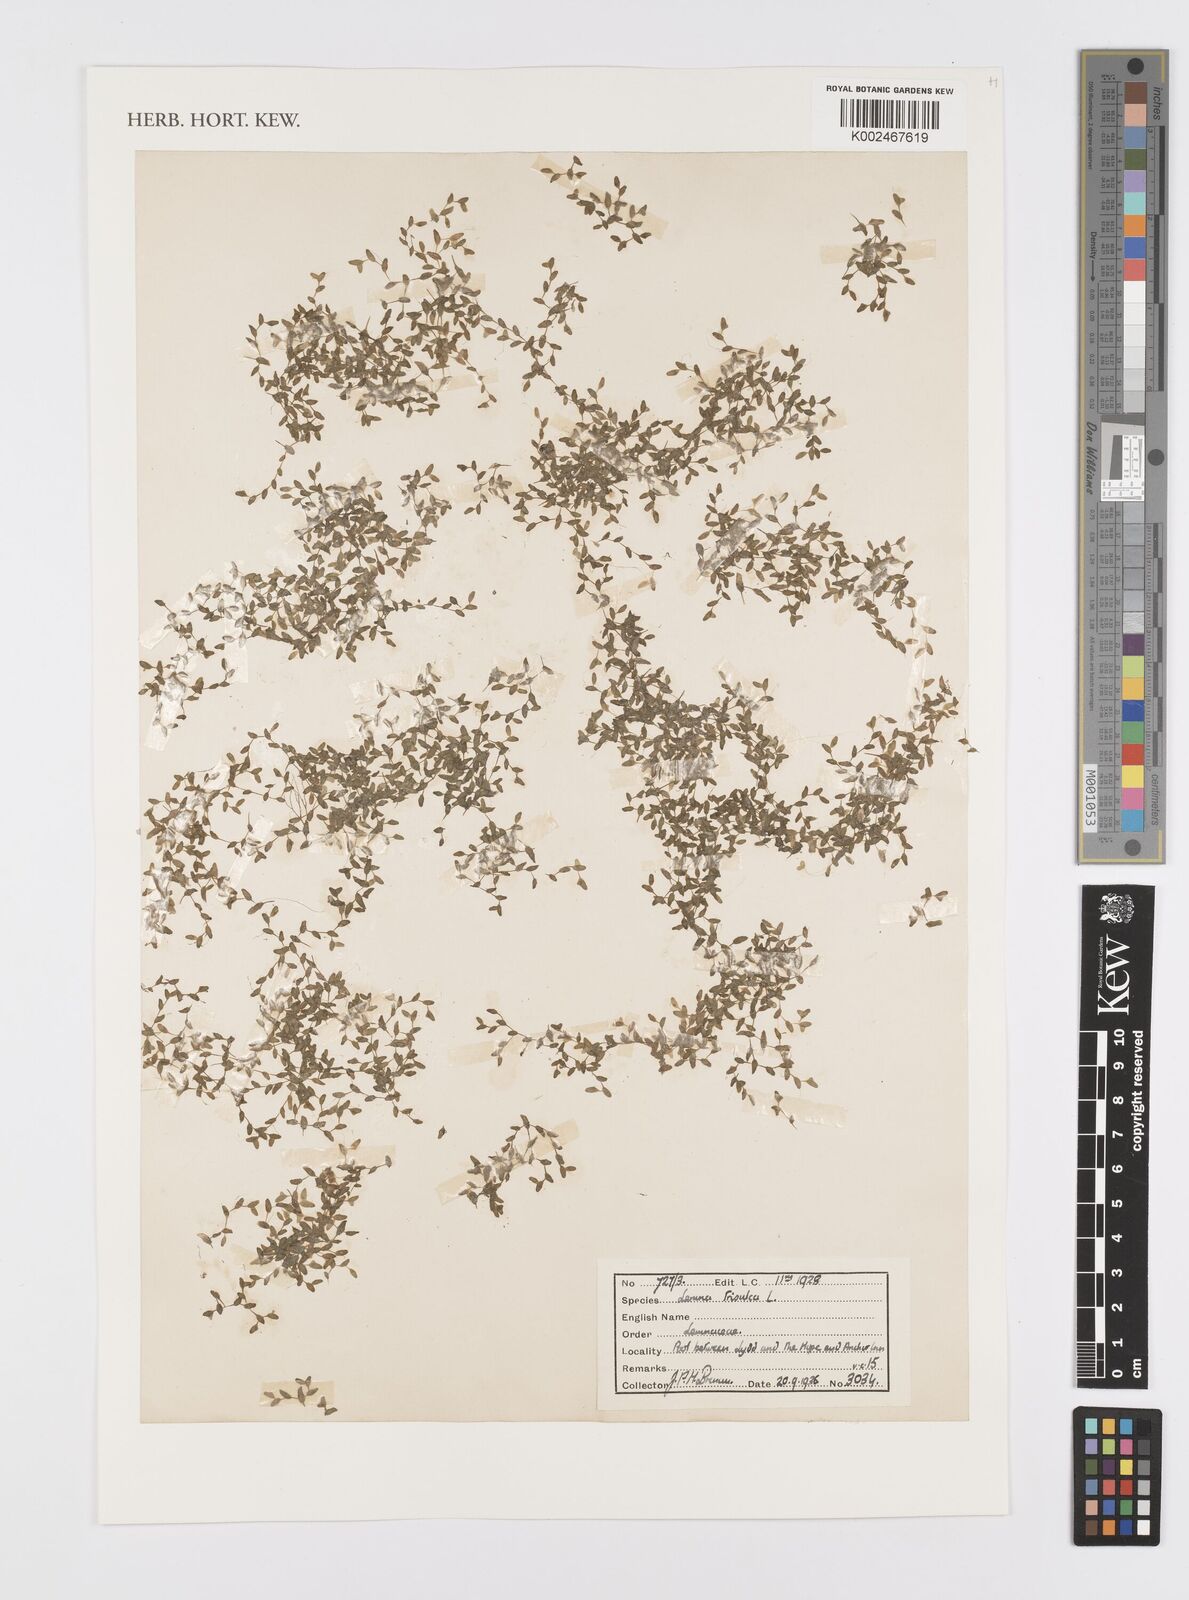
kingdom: Plantae
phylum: Tracheophyta
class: Liliopsida
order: Alismatales
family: Araceae
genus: Lemna
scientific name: Lemna trisulca
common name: Ivy-leaved duckweed
